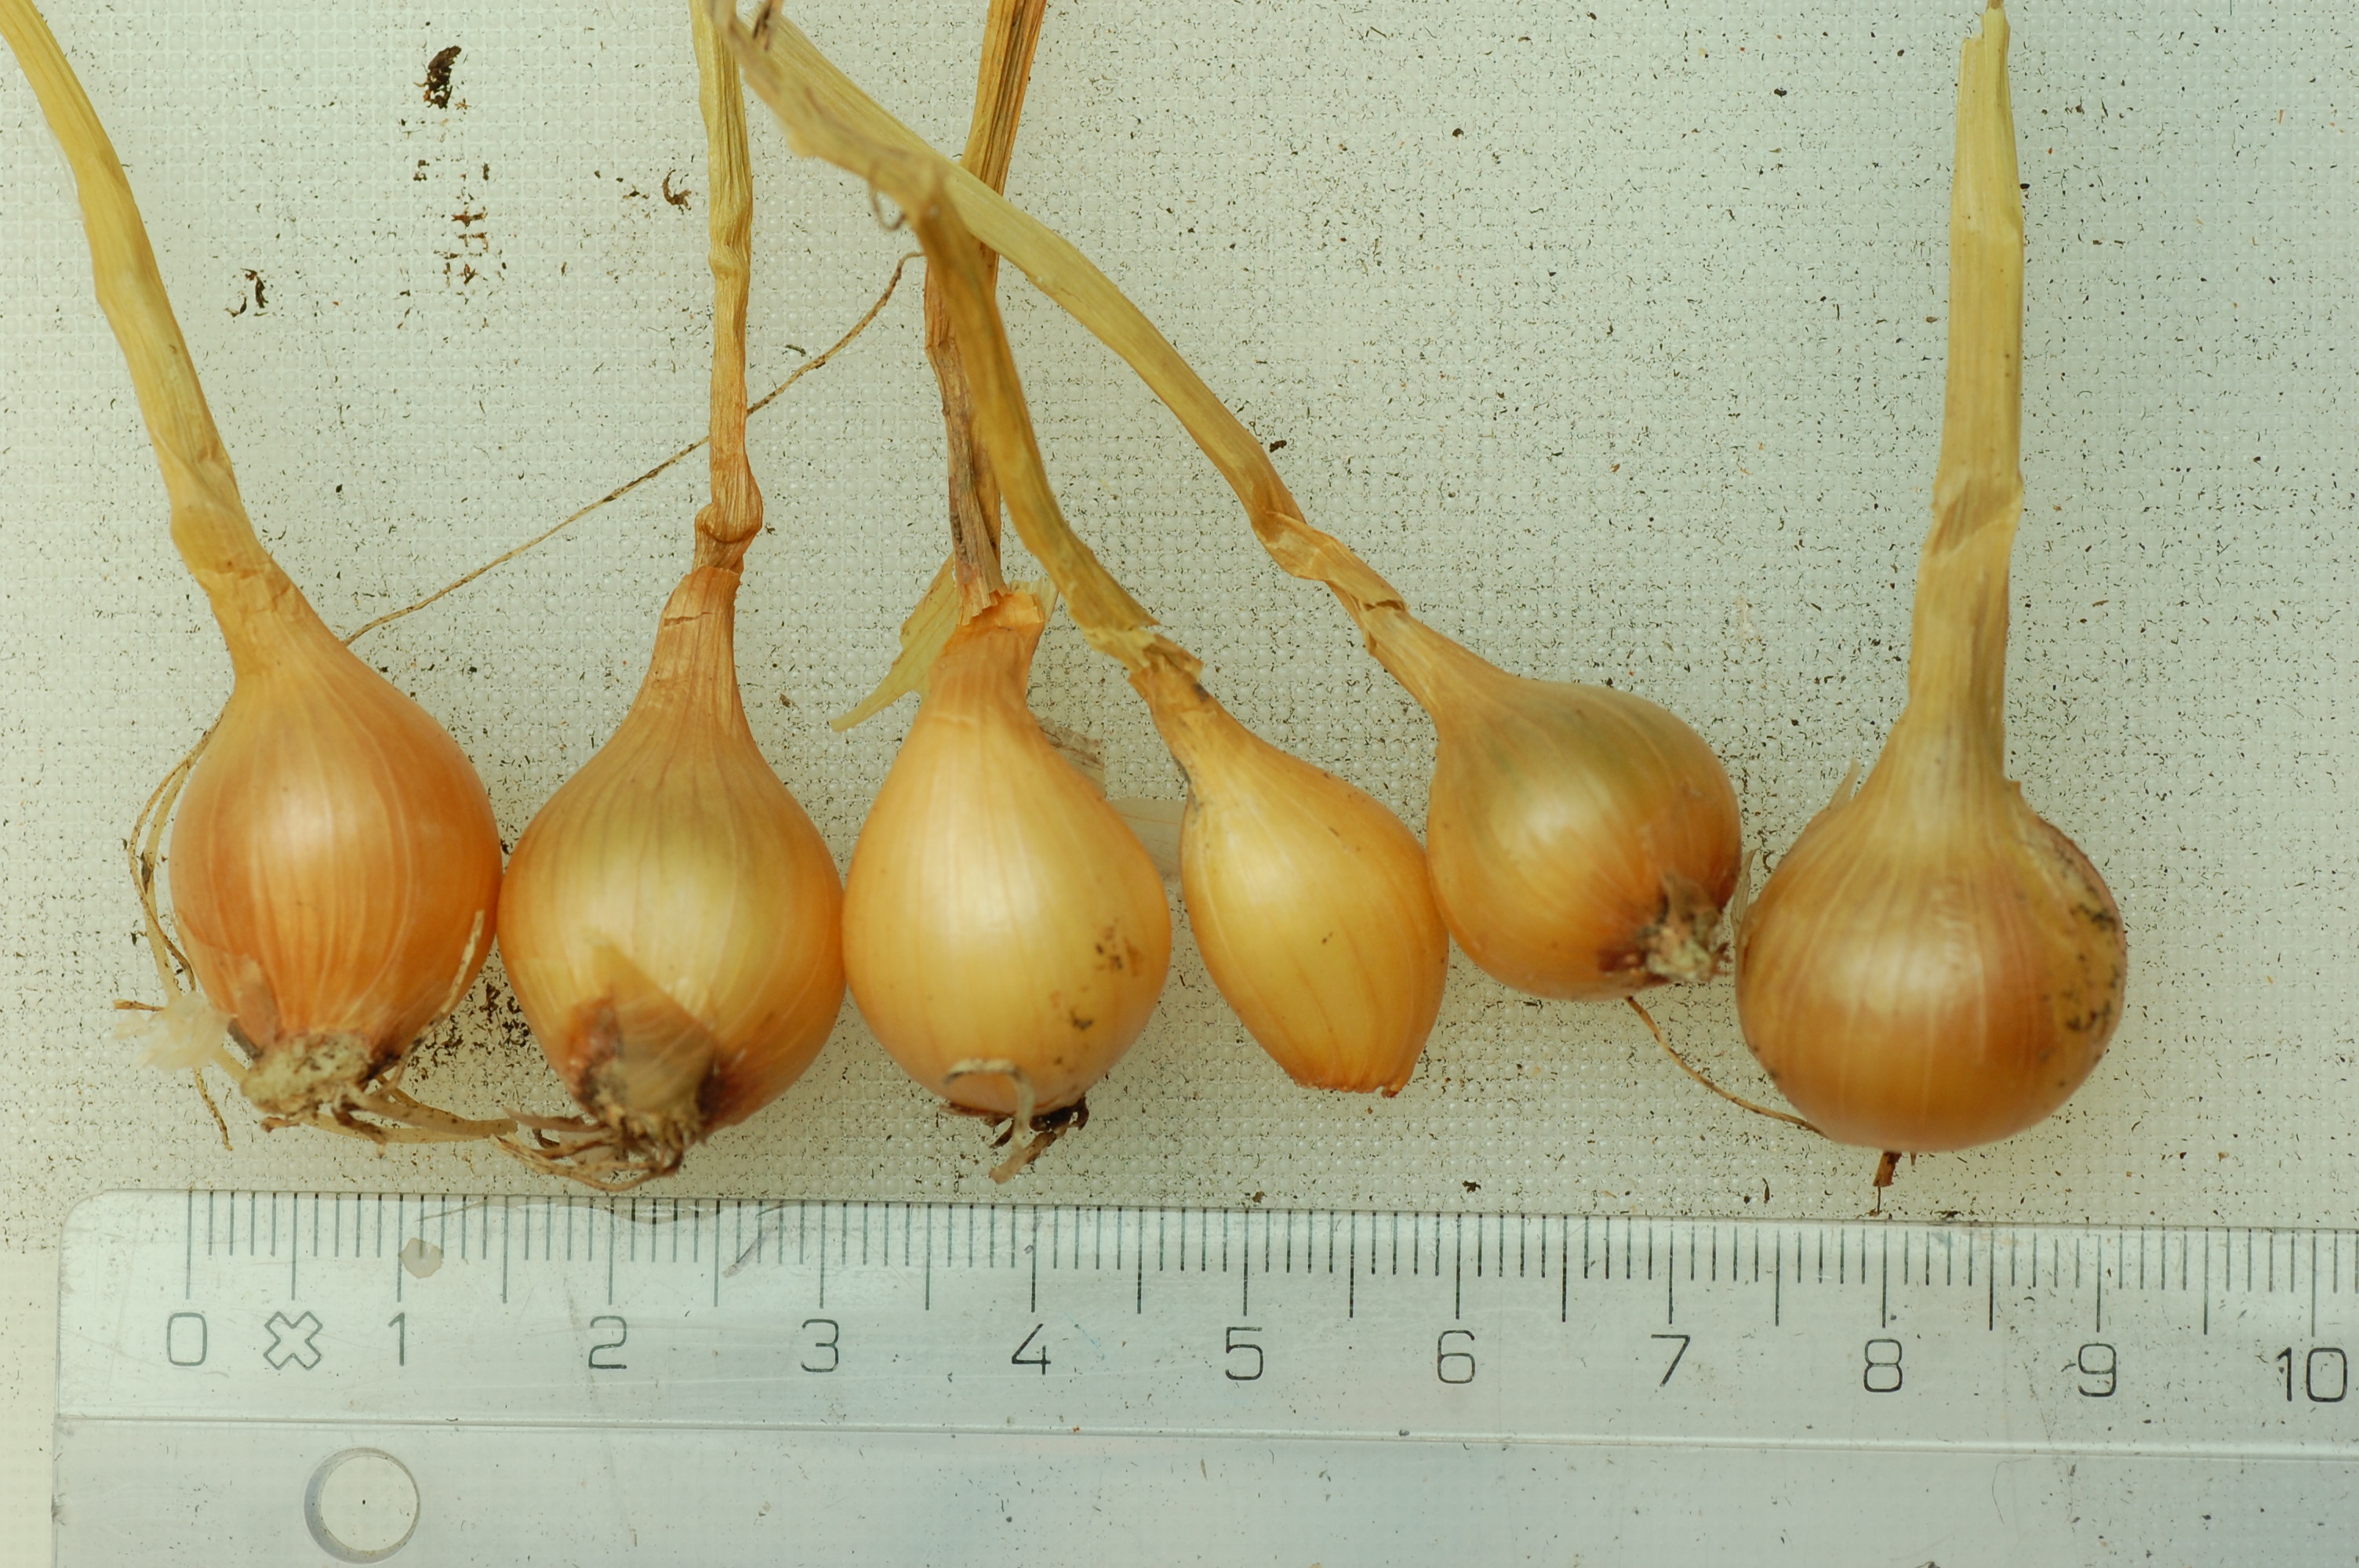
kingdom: Plantae
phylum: Tracheophyta
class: Liliopsida
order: Asparagales
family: Amaryllidaceae
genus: Allium
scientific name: Allium cepa
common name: Onion
